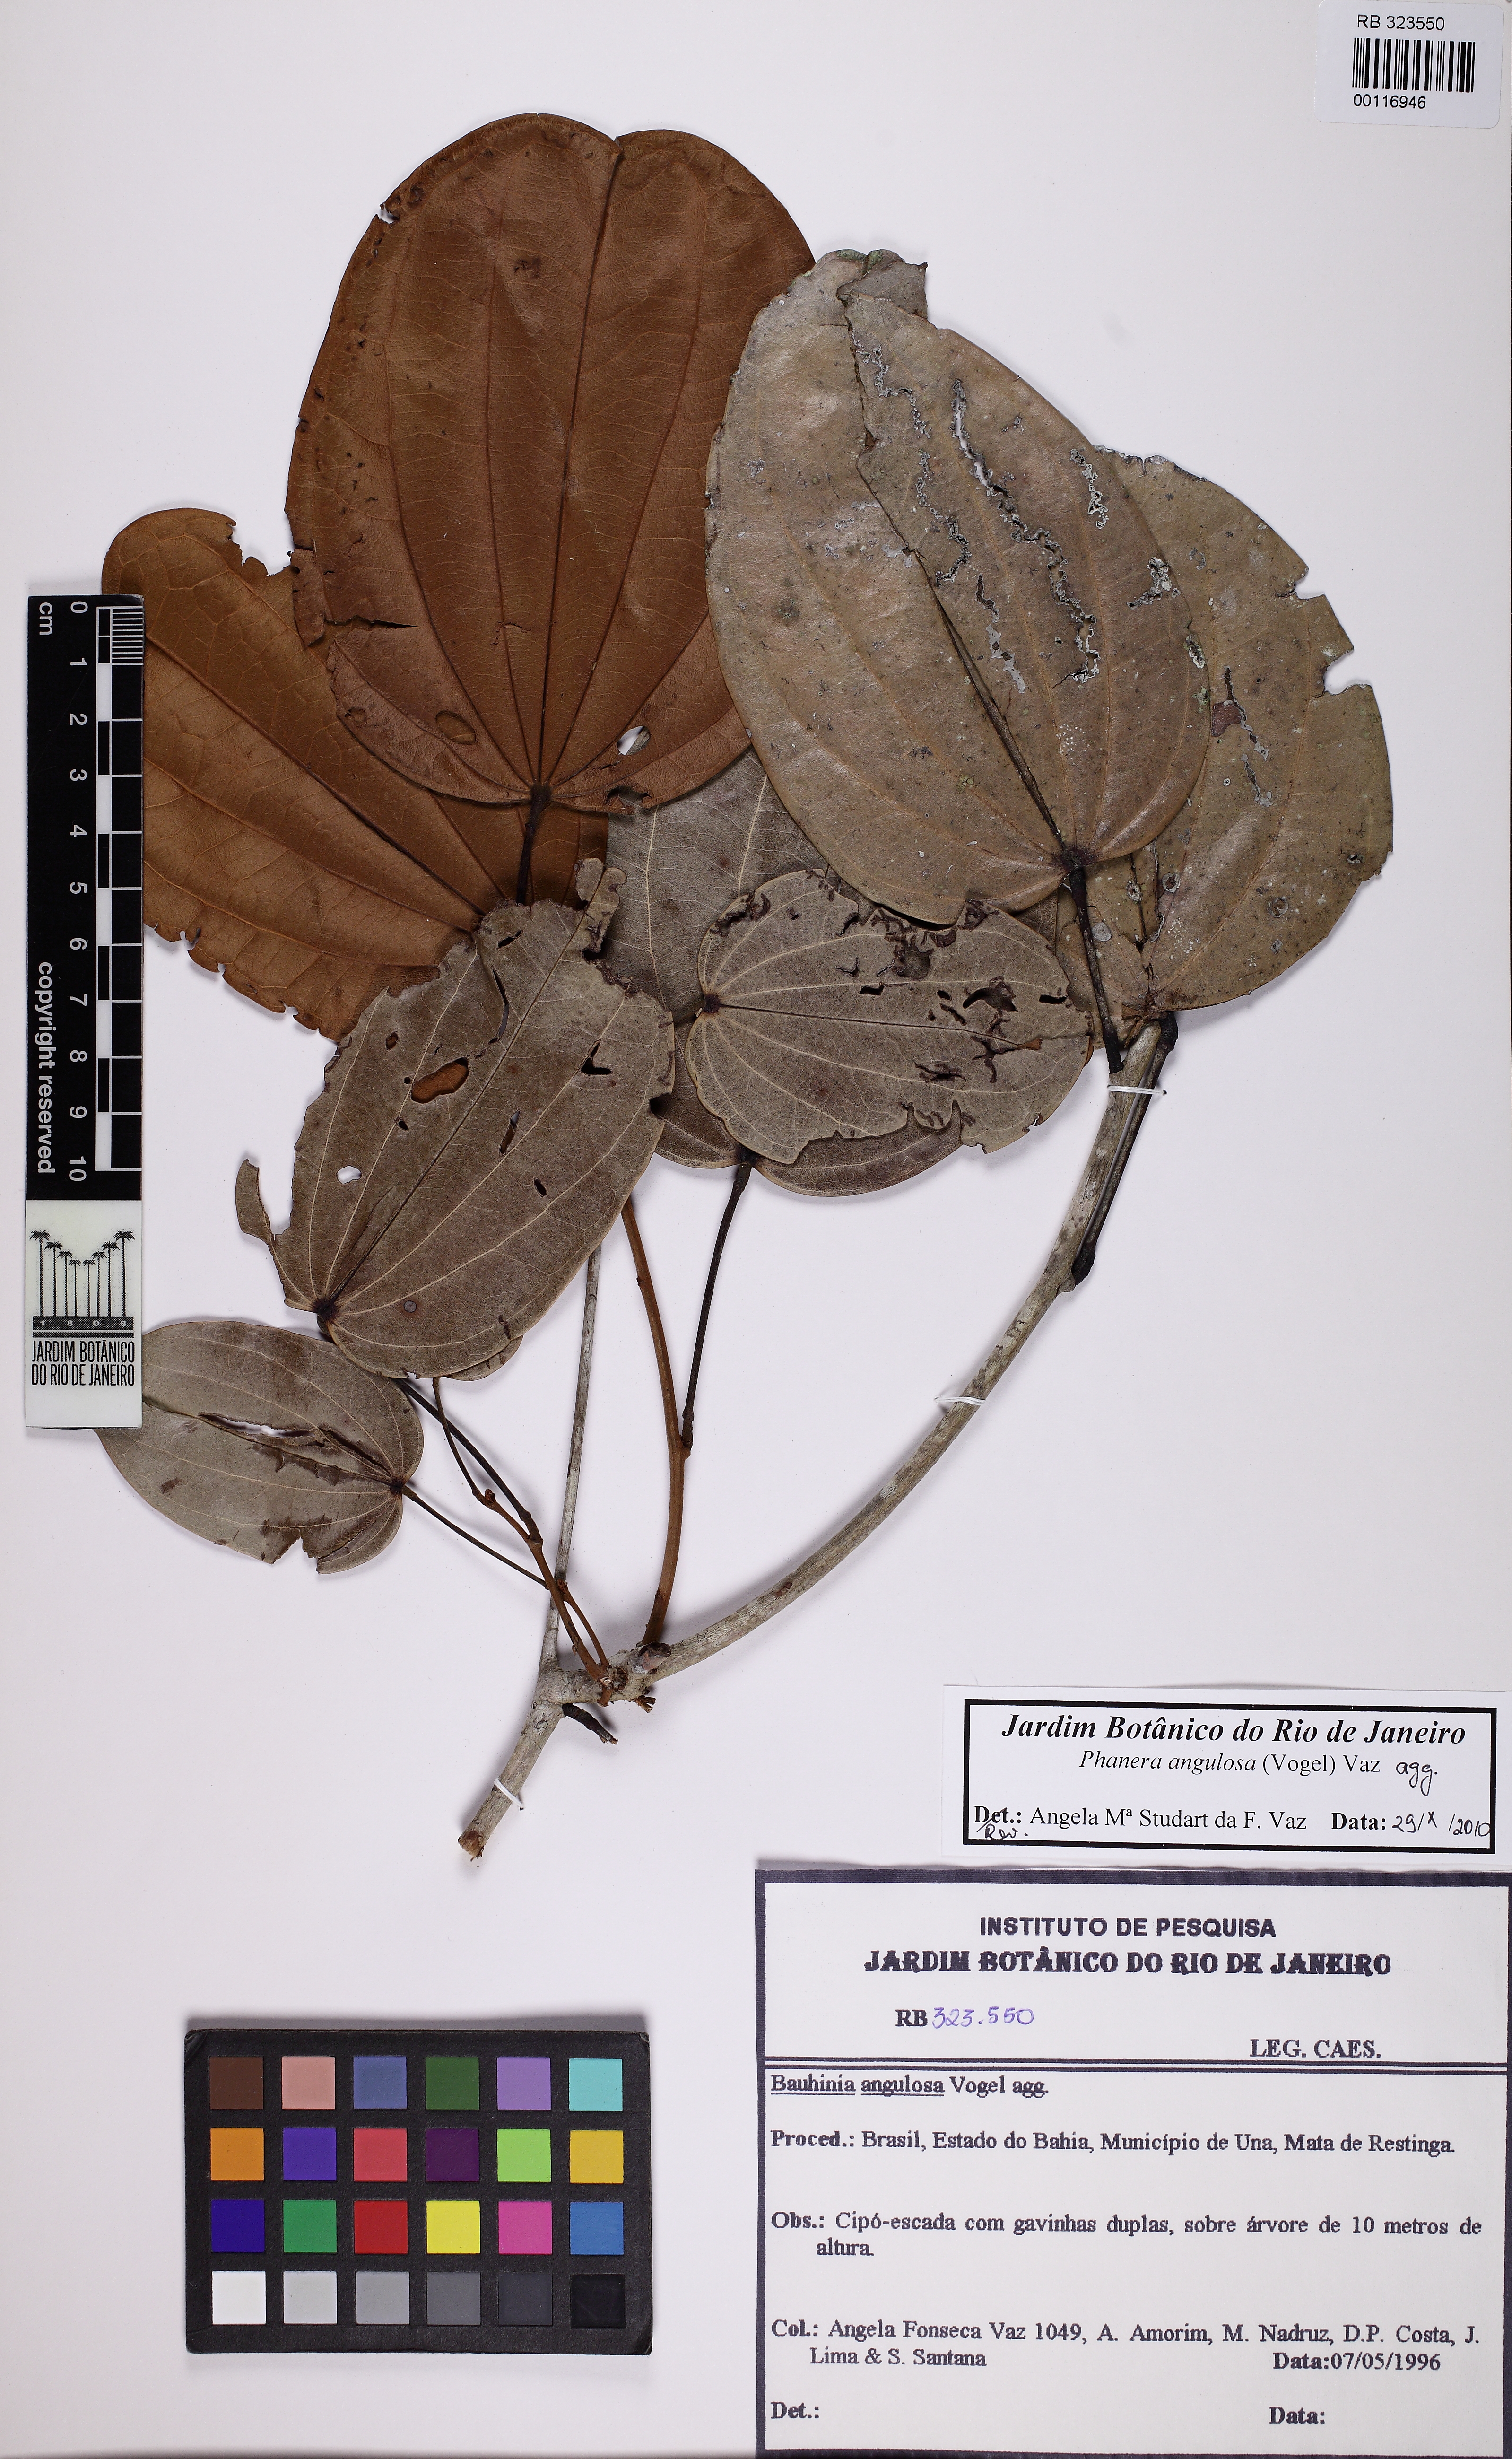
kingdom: Plantae
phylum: Tracheophyta
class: Magnoliopsida
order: Fabales
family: Fabaceae
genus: Schnella
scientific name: Schnella angulosa
